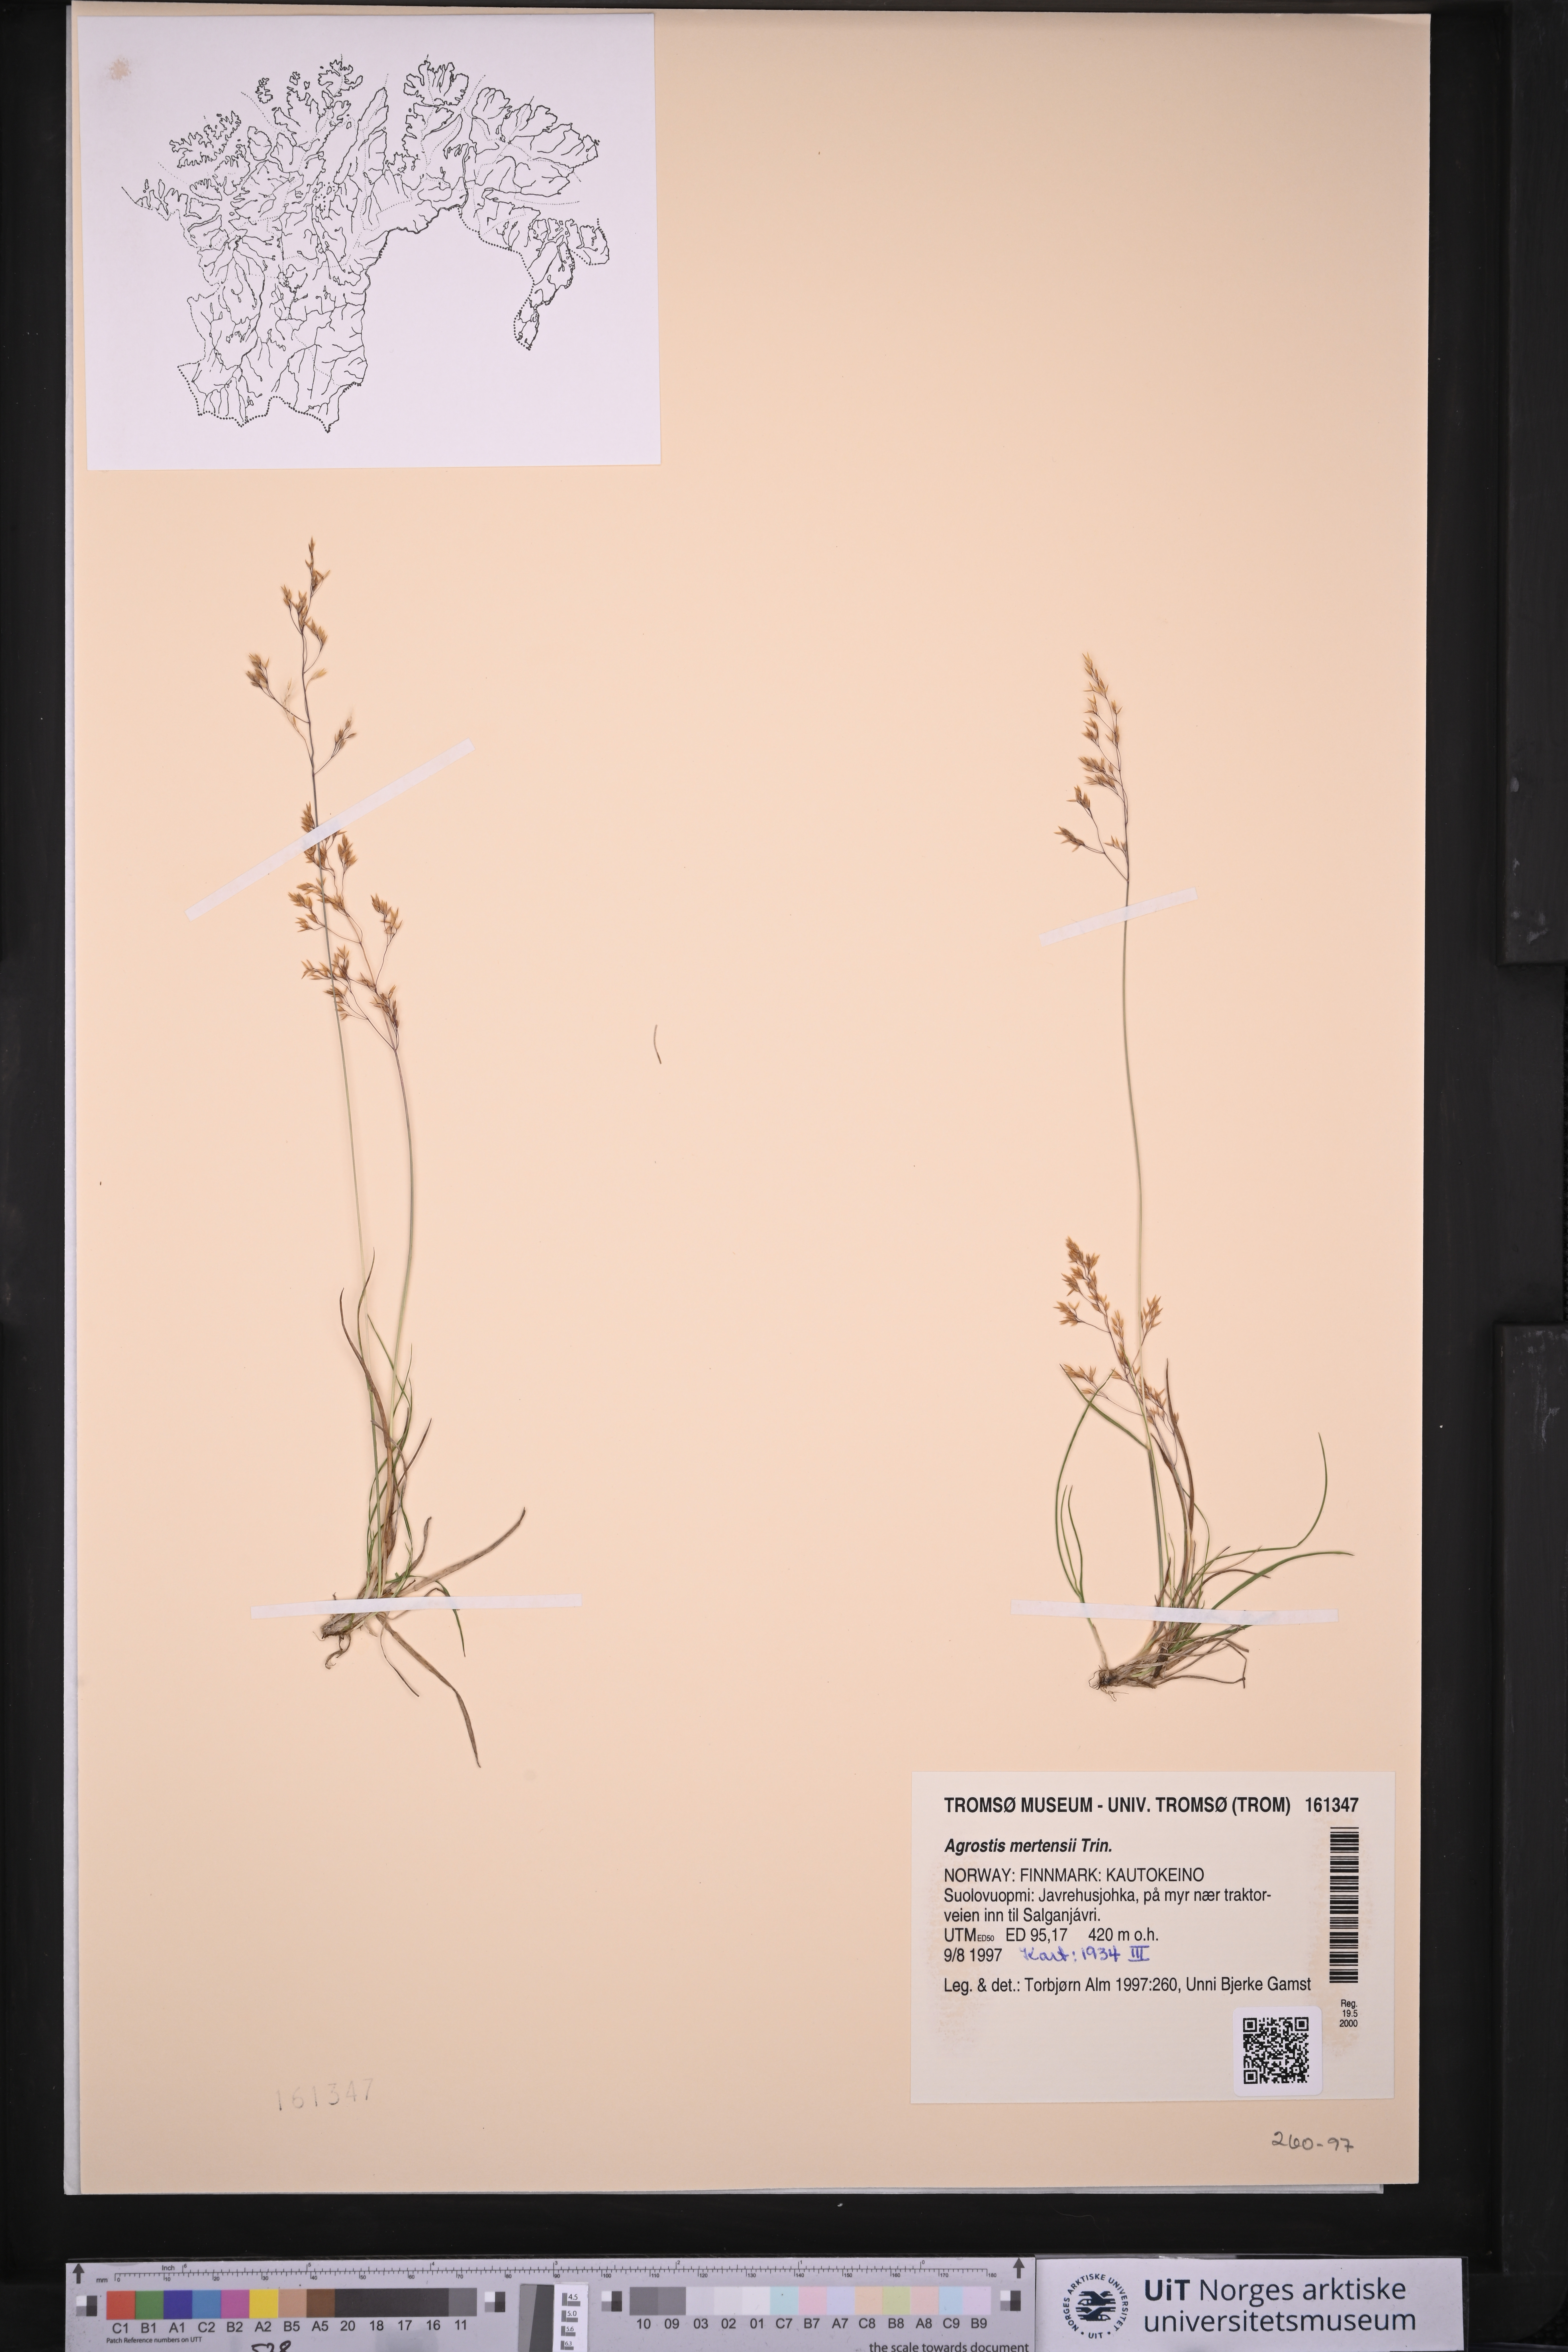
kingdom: Plantae
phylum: Tracheophyta
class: Liliopsida
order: Poales
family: Poaceae
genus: Agrostis
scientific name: Agrostis mertensii
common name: Northern bent
